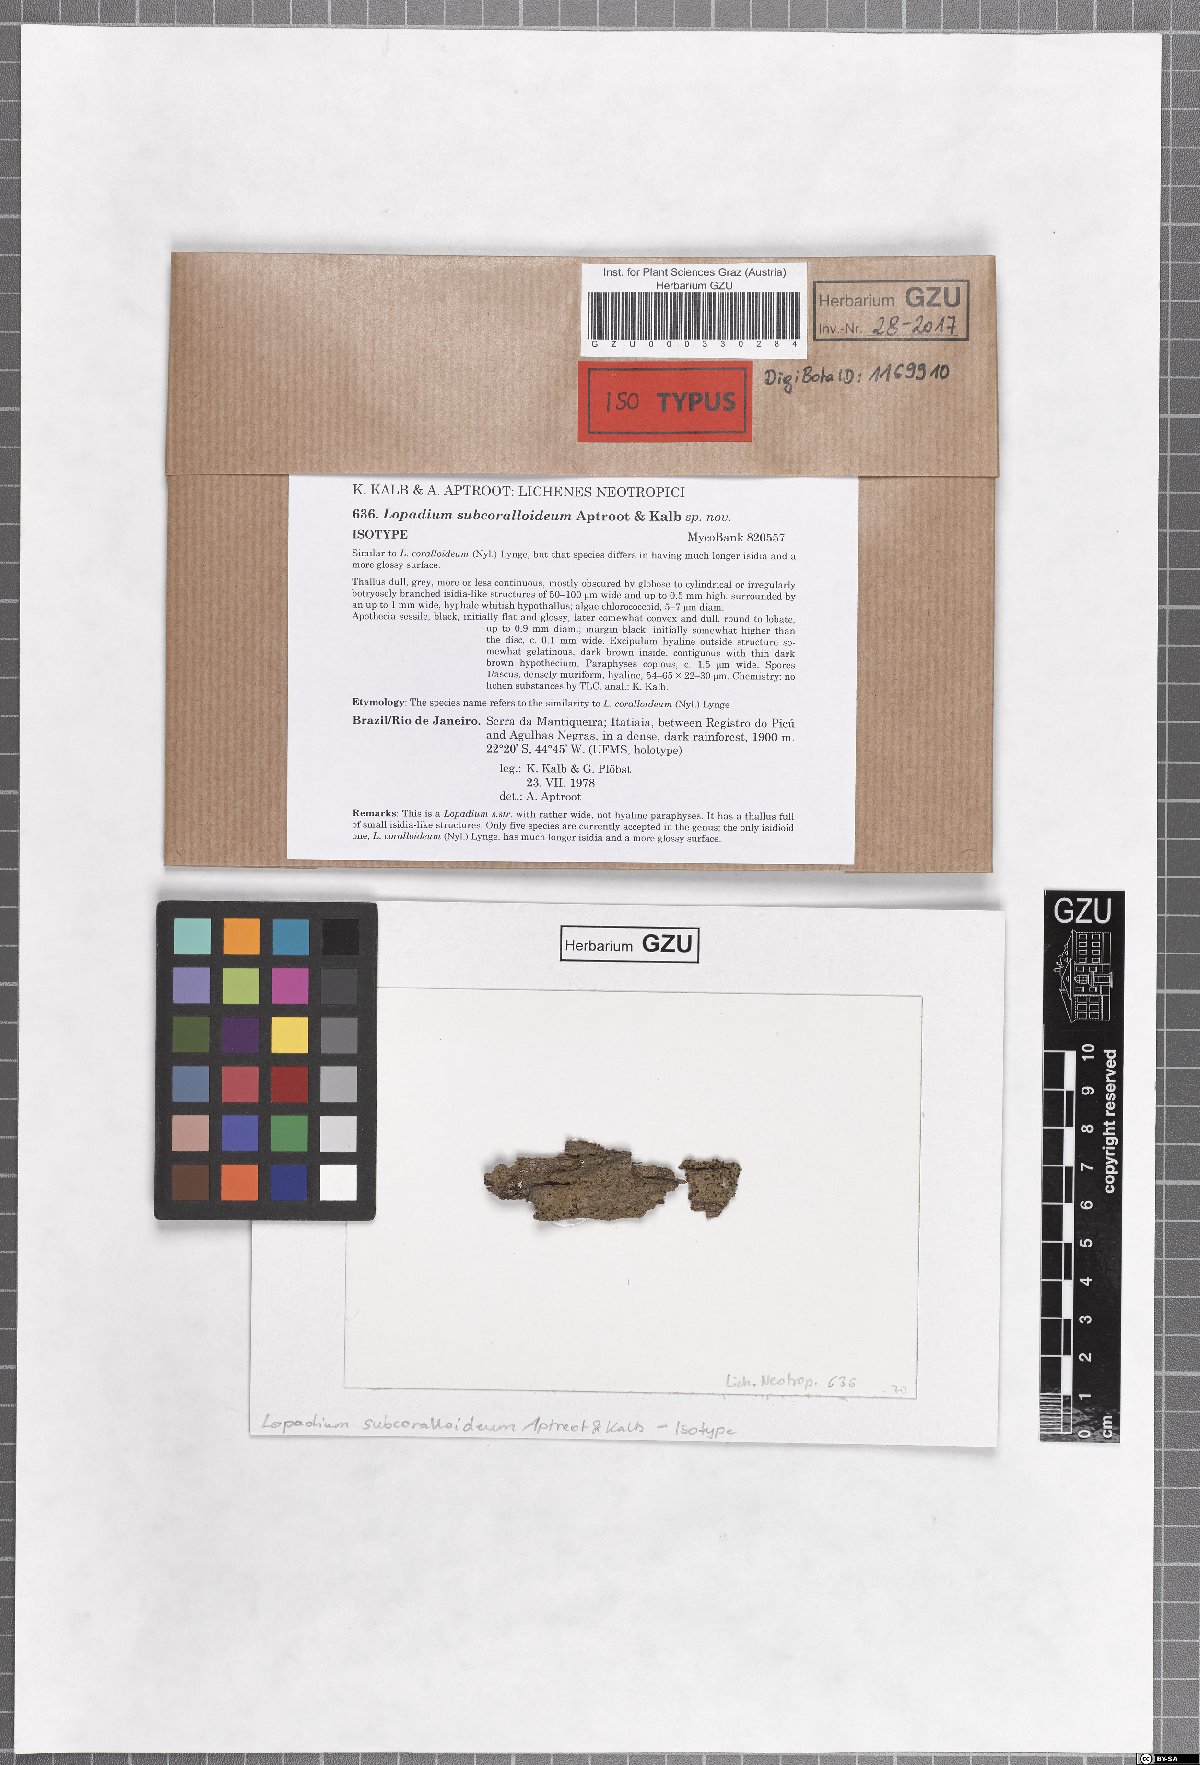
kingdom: Fungi
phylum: Ascomycota
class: Lecanoromycetes
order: Lecideales
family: Lopadiaceae
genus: Lopadium
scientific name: Lopadium subcoralloideum
